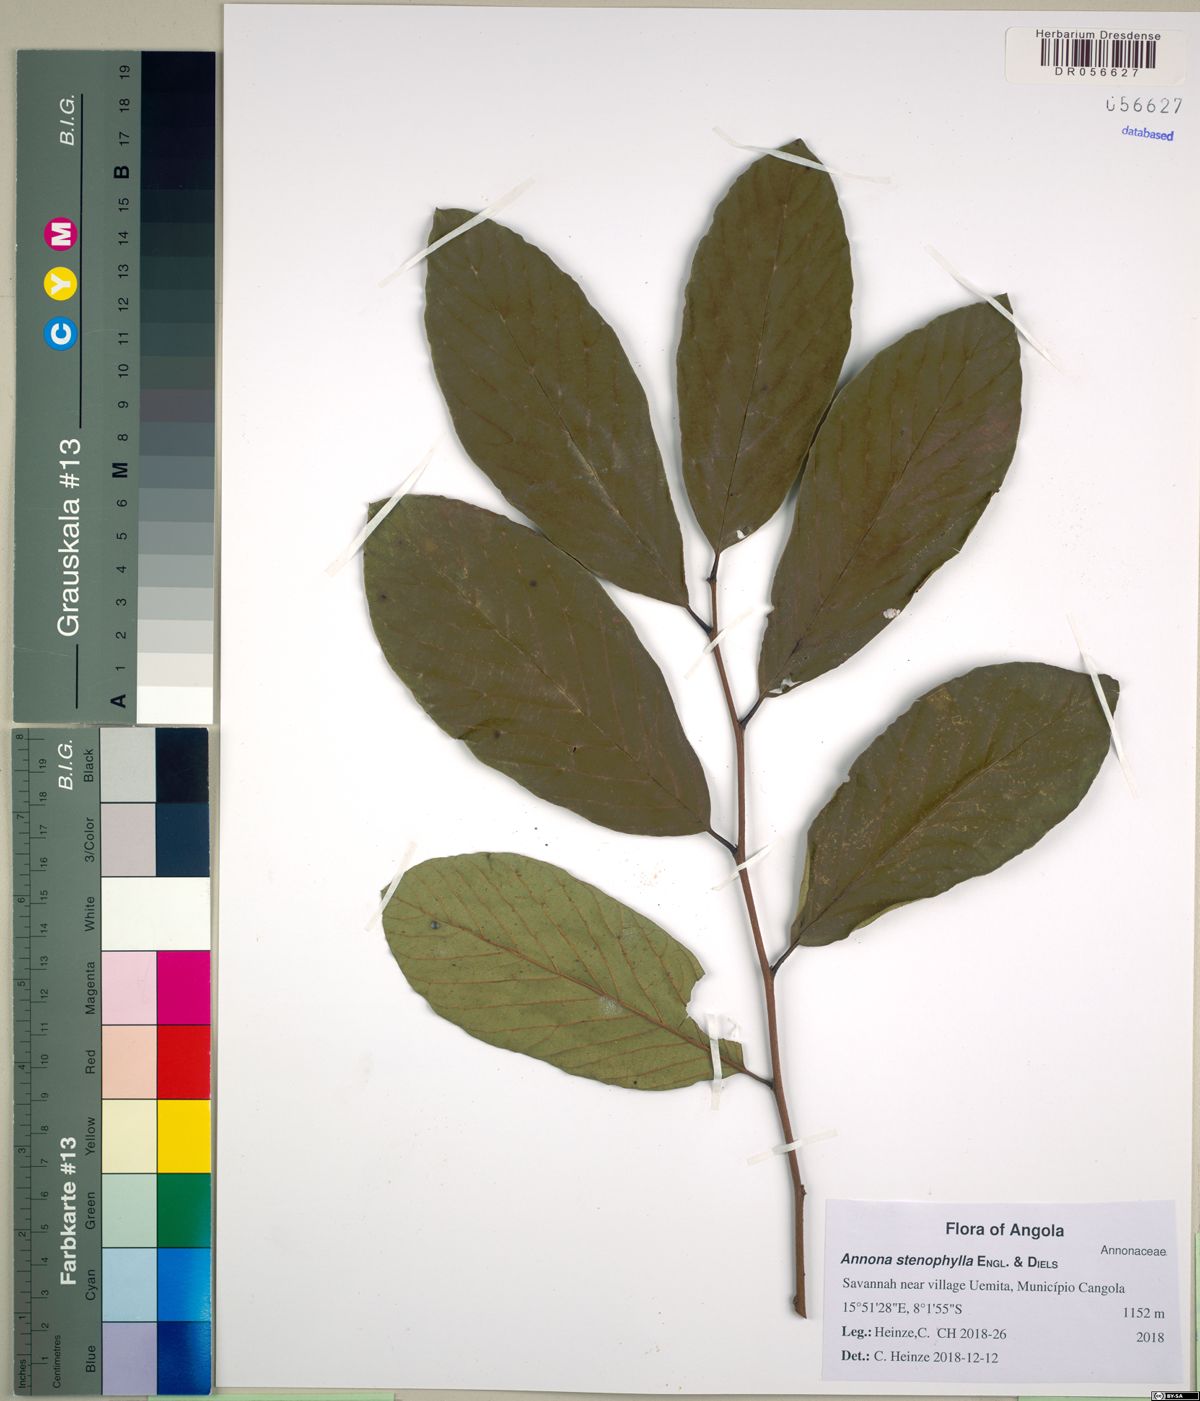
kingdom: Plantae
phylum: Tracheophyta
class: Magnoliopsida
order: Magnoliales
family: Annonaceae
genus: Annona
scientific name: Annona stenophylla
